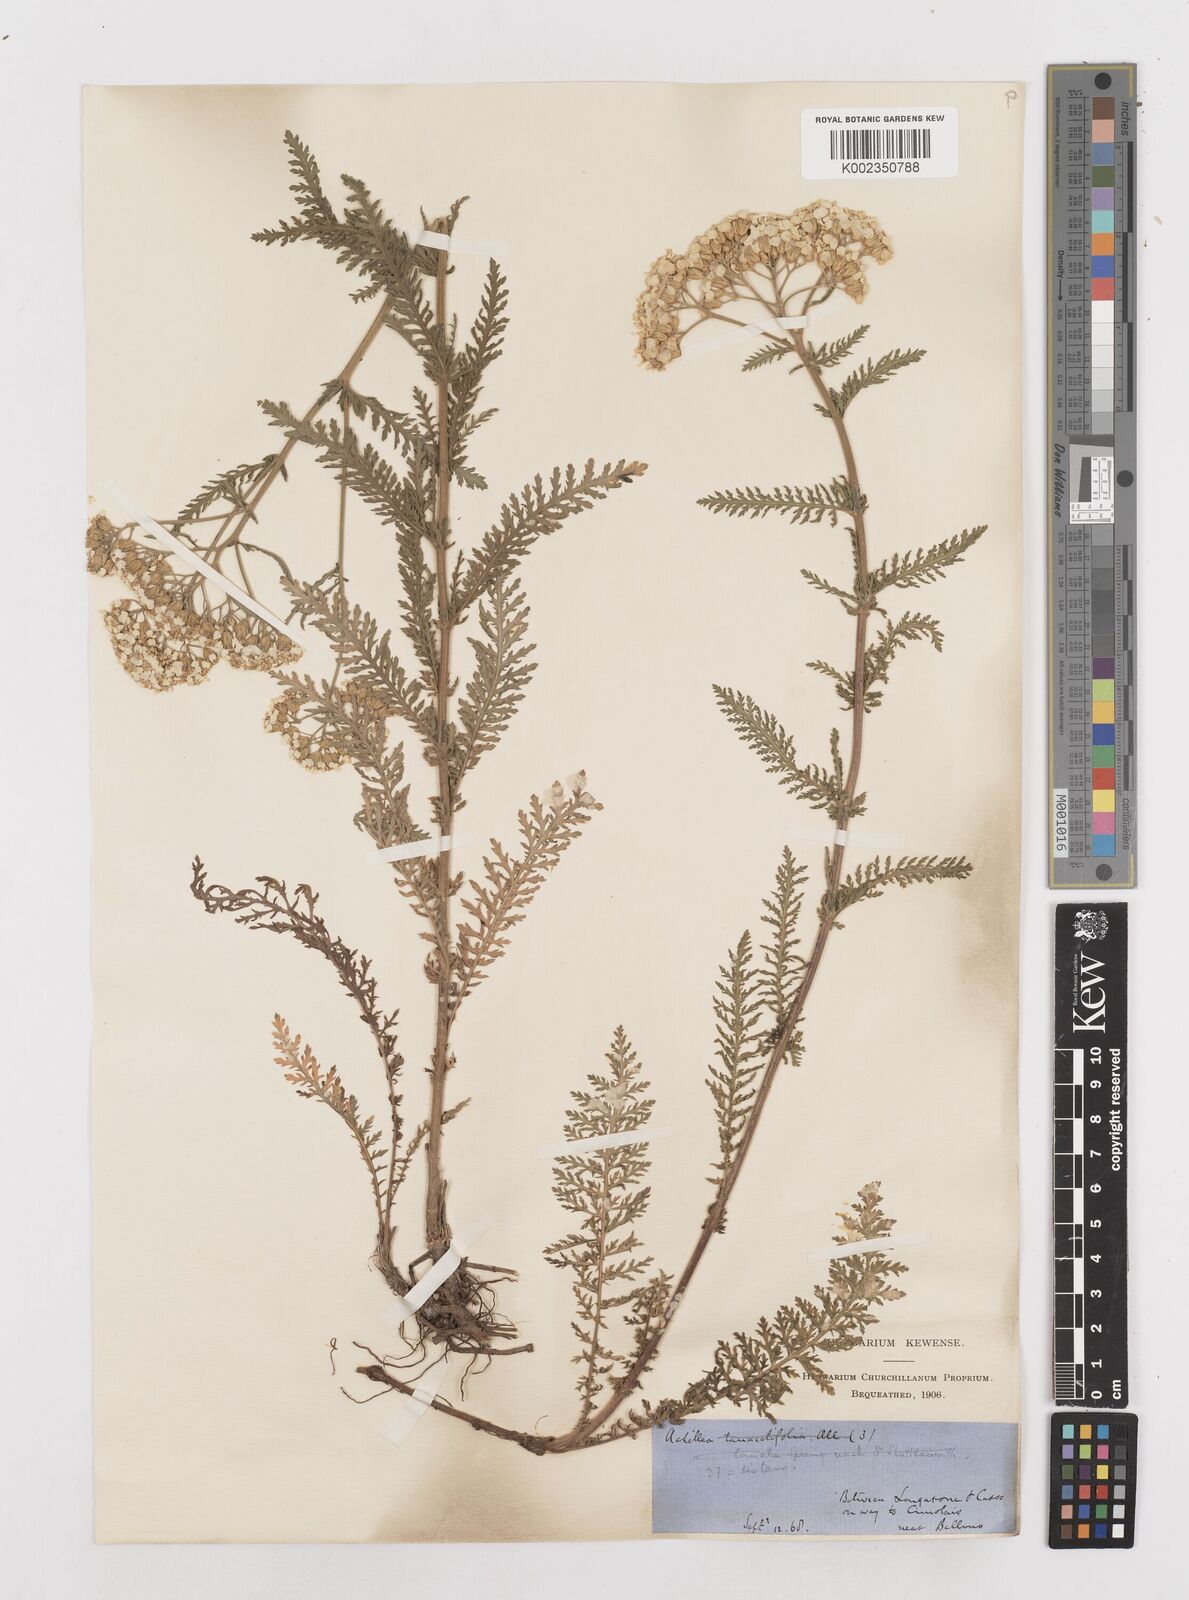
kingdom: Plantae
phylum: Tracheophyta
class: Magnoliopsida
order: Asterales
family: Asteraceae
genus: Achillea
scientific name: Achillea distans
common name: Tall yarrow
